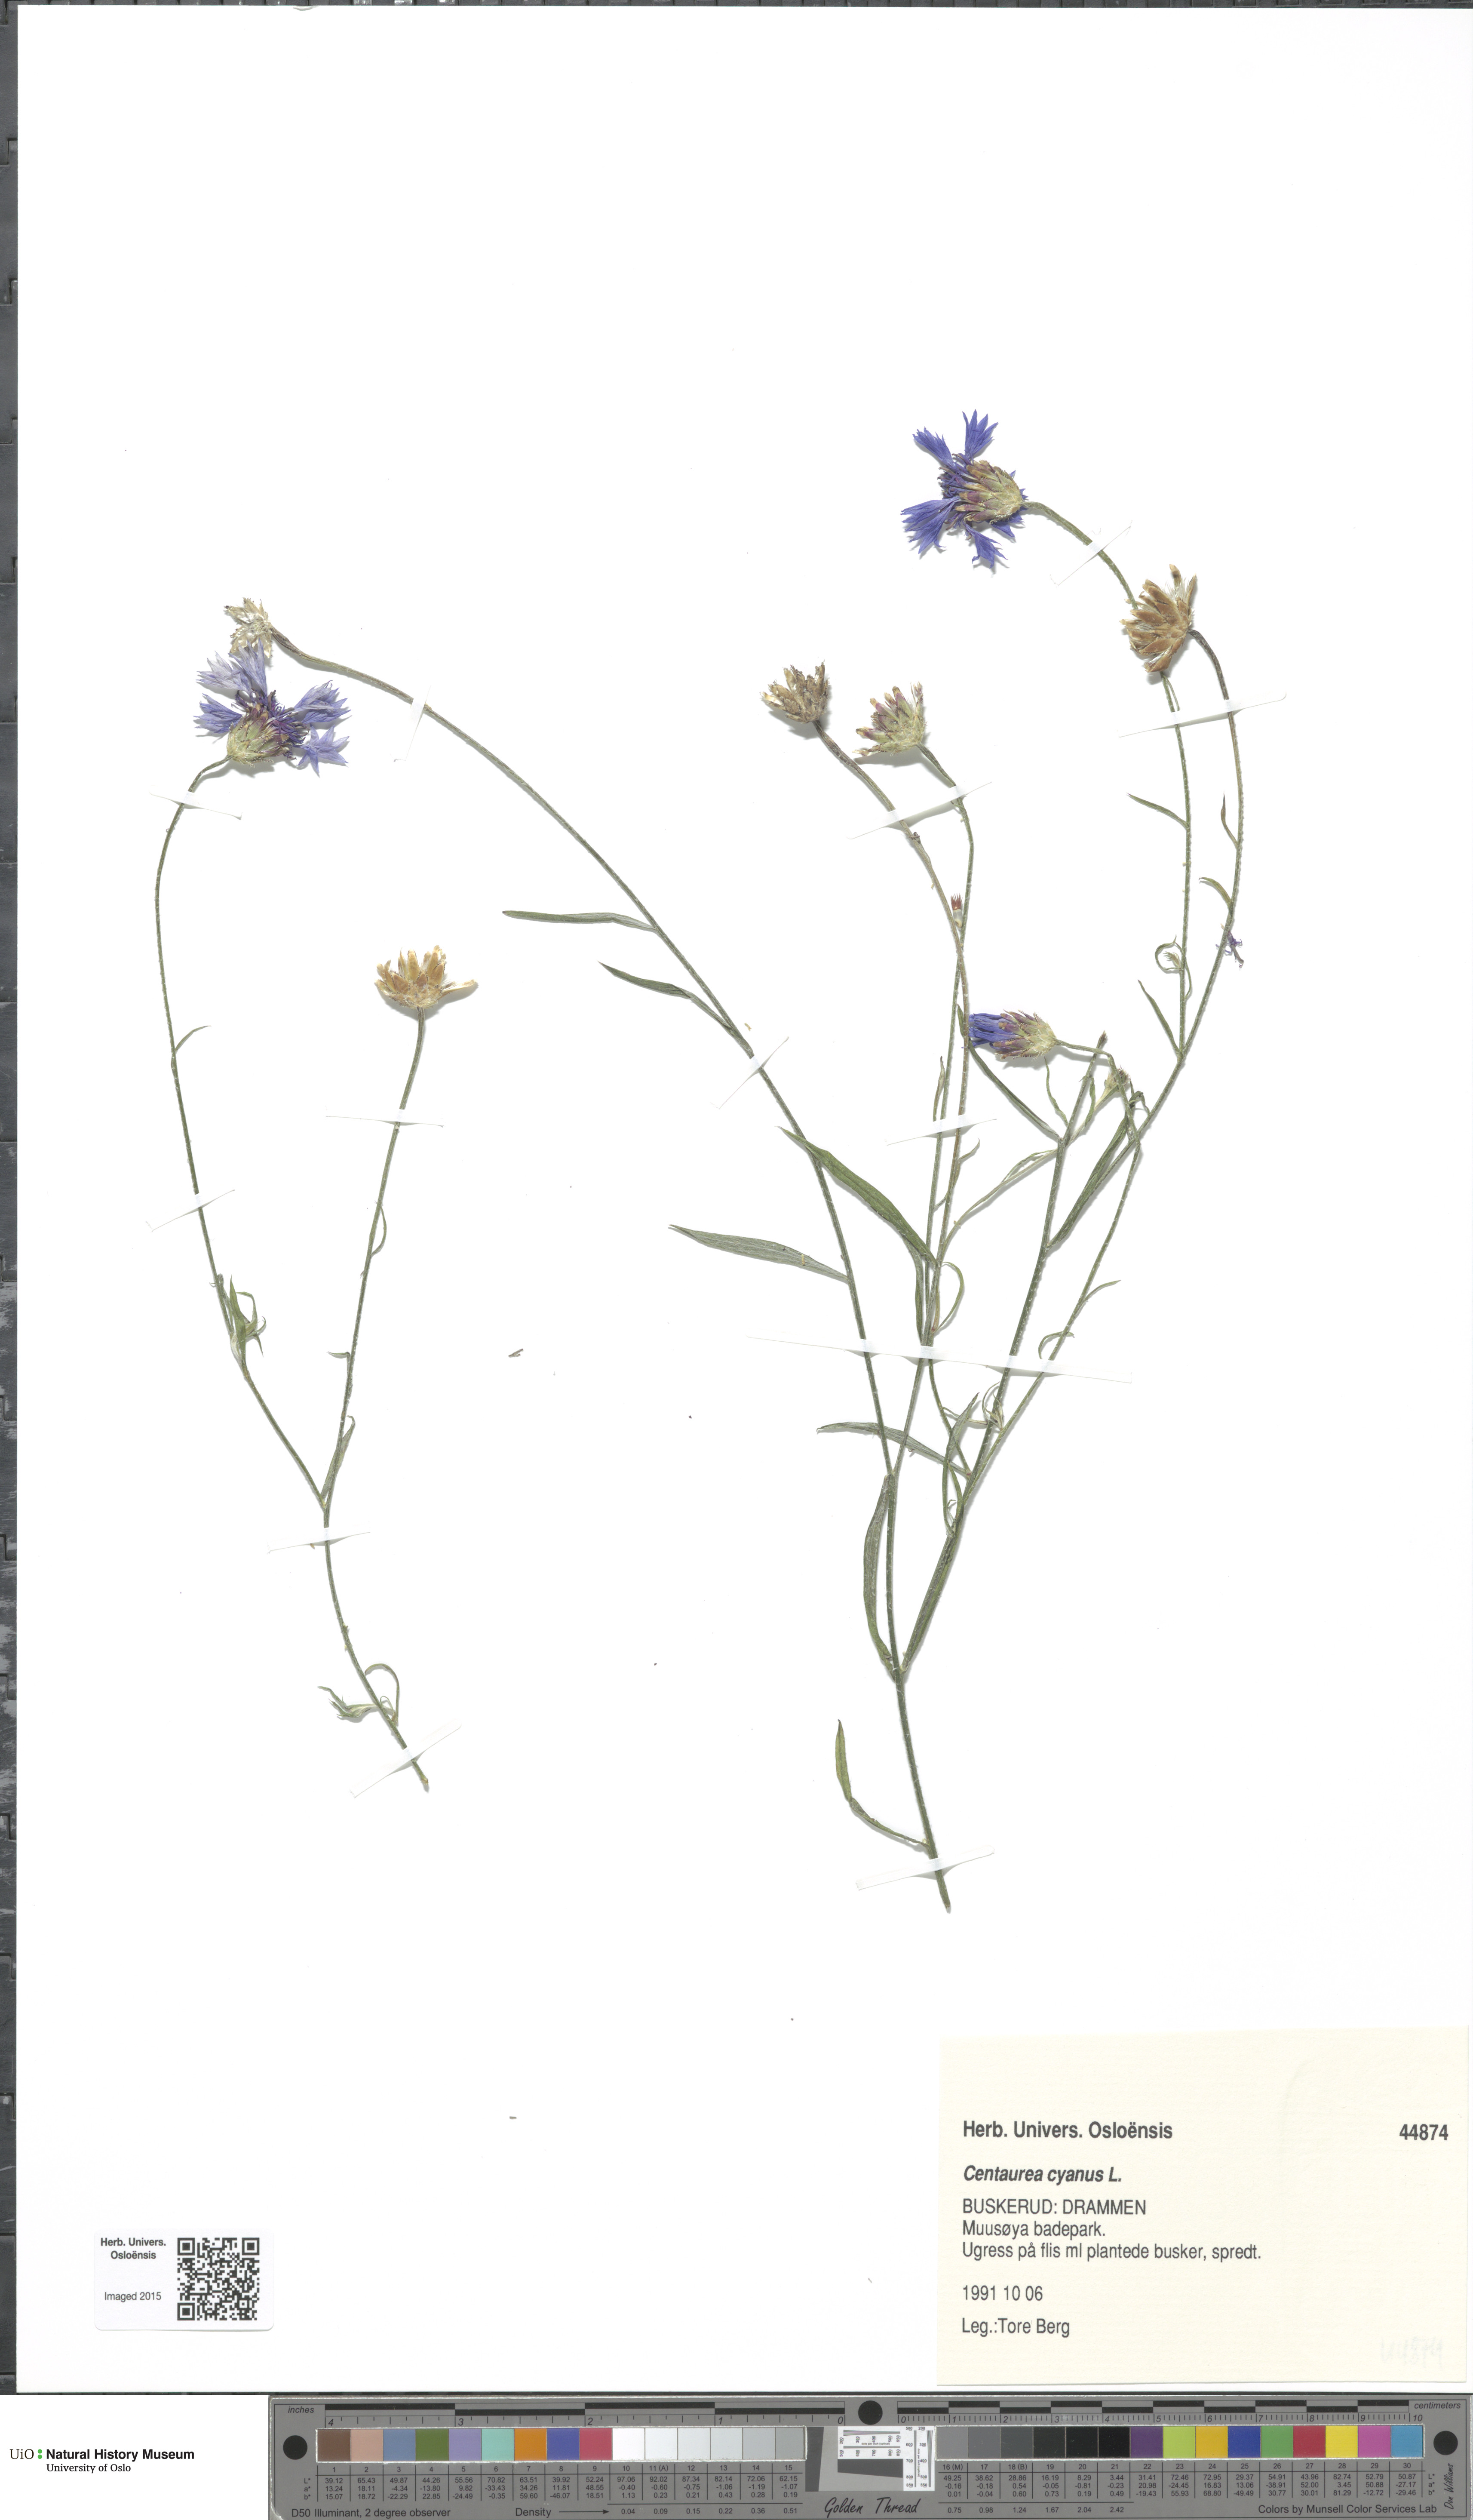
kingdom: Plantae
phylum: Tracheophyta
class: Magnoliopsida
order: Asterales
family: Asteraceae
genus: Centaurea
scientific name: Centaurea cyanus
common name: Cornflower
